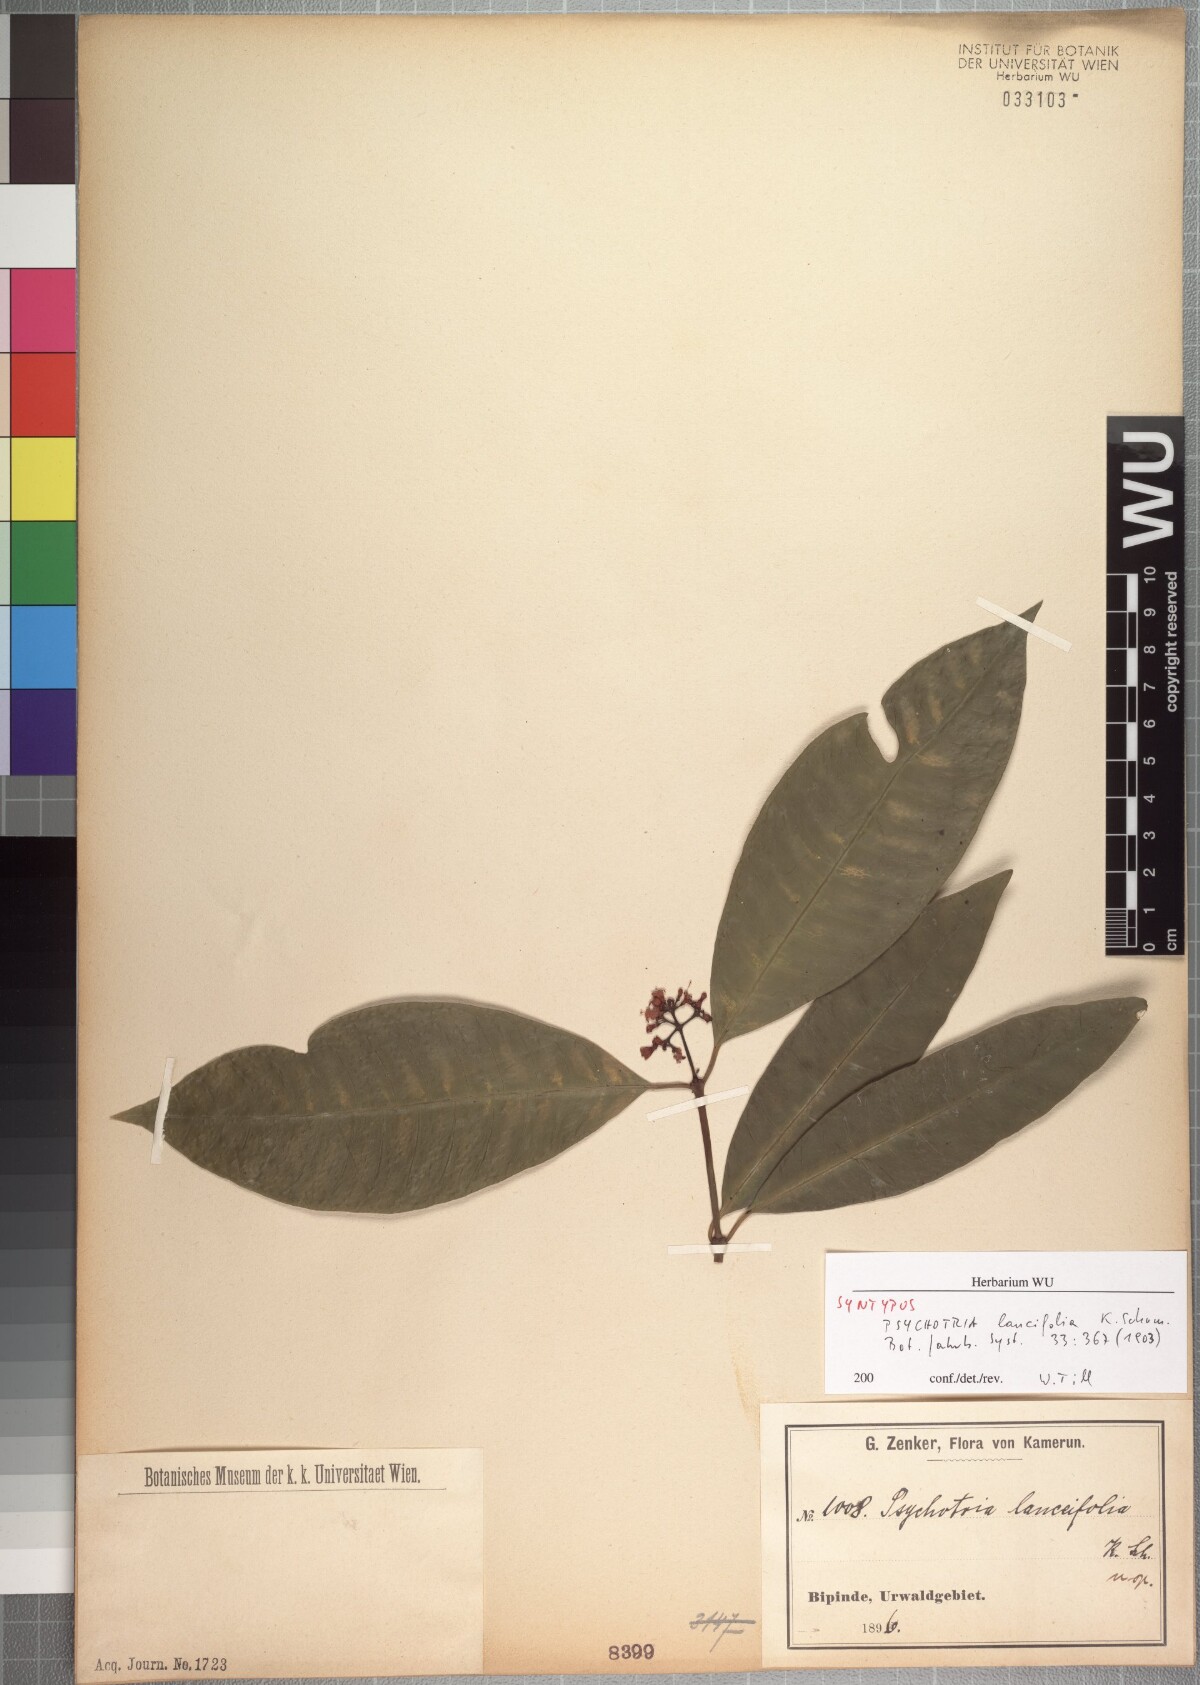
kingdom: Plantae
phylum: Tracheophyta
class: Magnoliopsida
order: Gentianales
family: Rubiaceae
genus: Psychotria
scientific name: Psychotria lanceifolia
